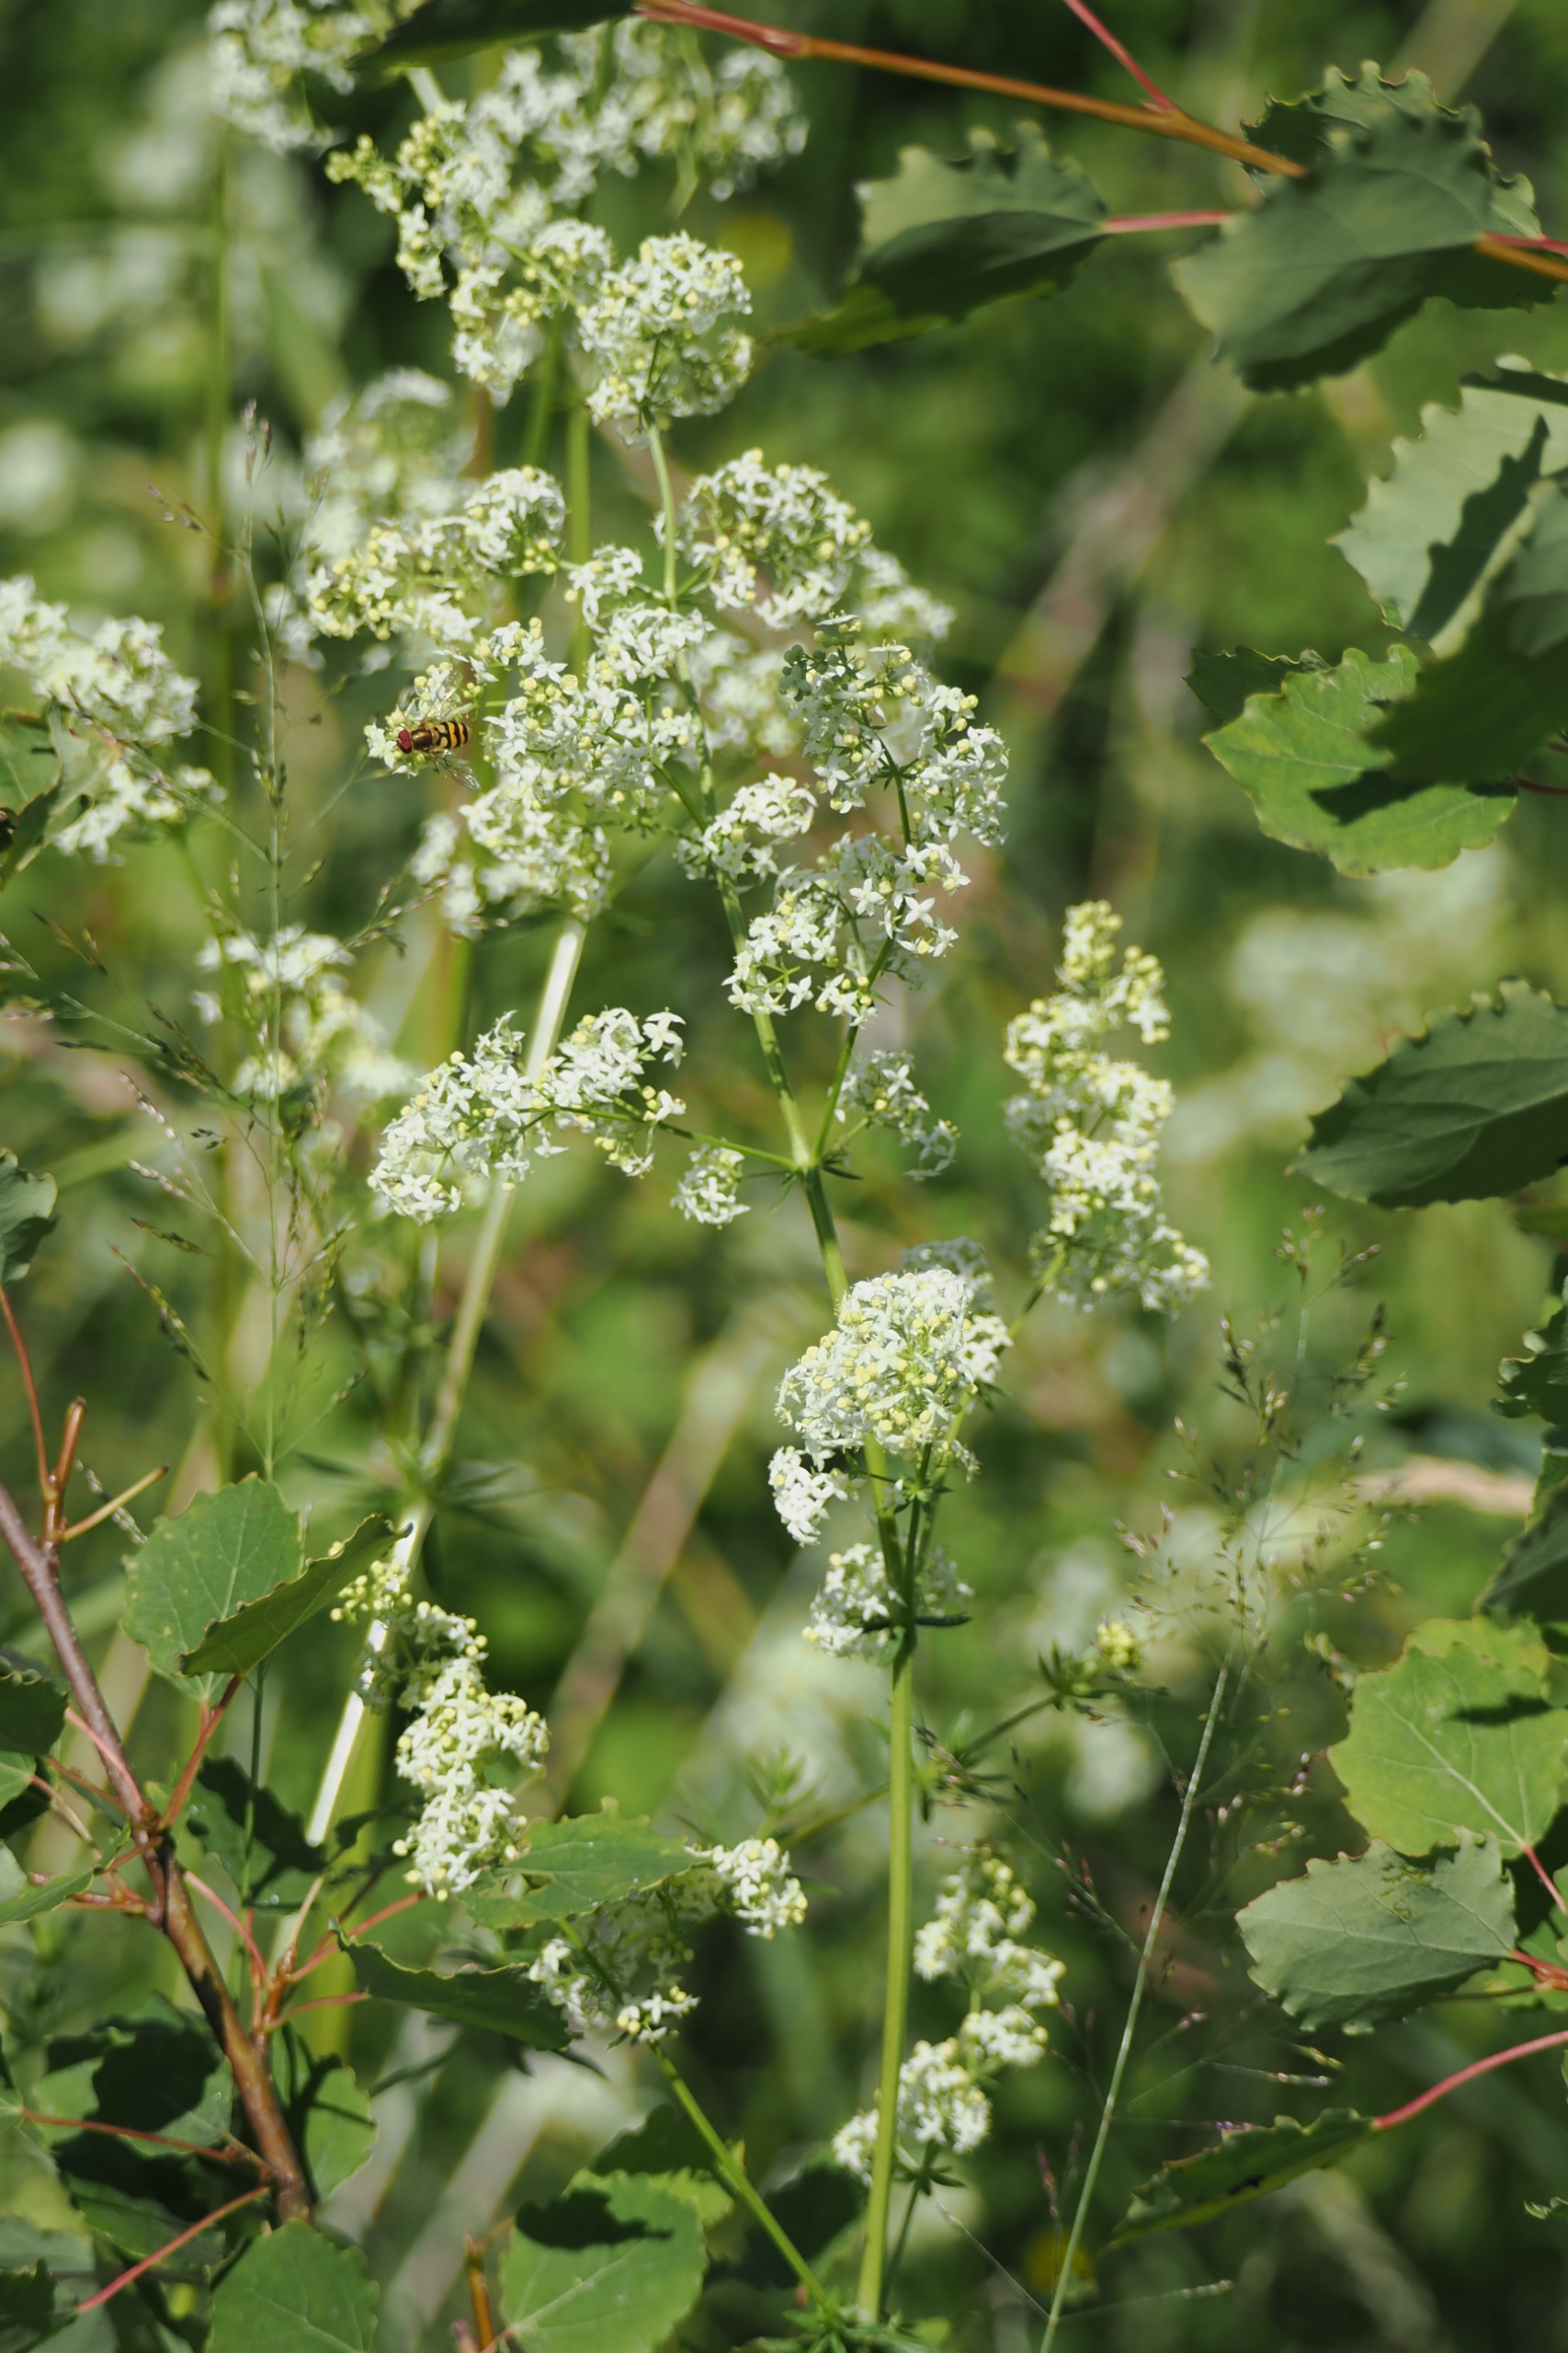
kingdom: Plantae
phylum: Tracheophyta
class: Magnoliopsida
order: Gentianales
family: Rubiaceae
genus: Galium
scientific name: Galium mollugo
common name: Hvid snerre
